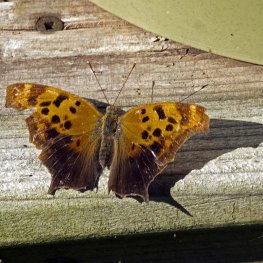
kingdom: Animalia
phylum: Arthropoda
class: Insecta
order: Lepidoptera
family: Nymphalidae
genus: Polygonia
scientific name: Polygonia interrogationis
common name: Question Mark
